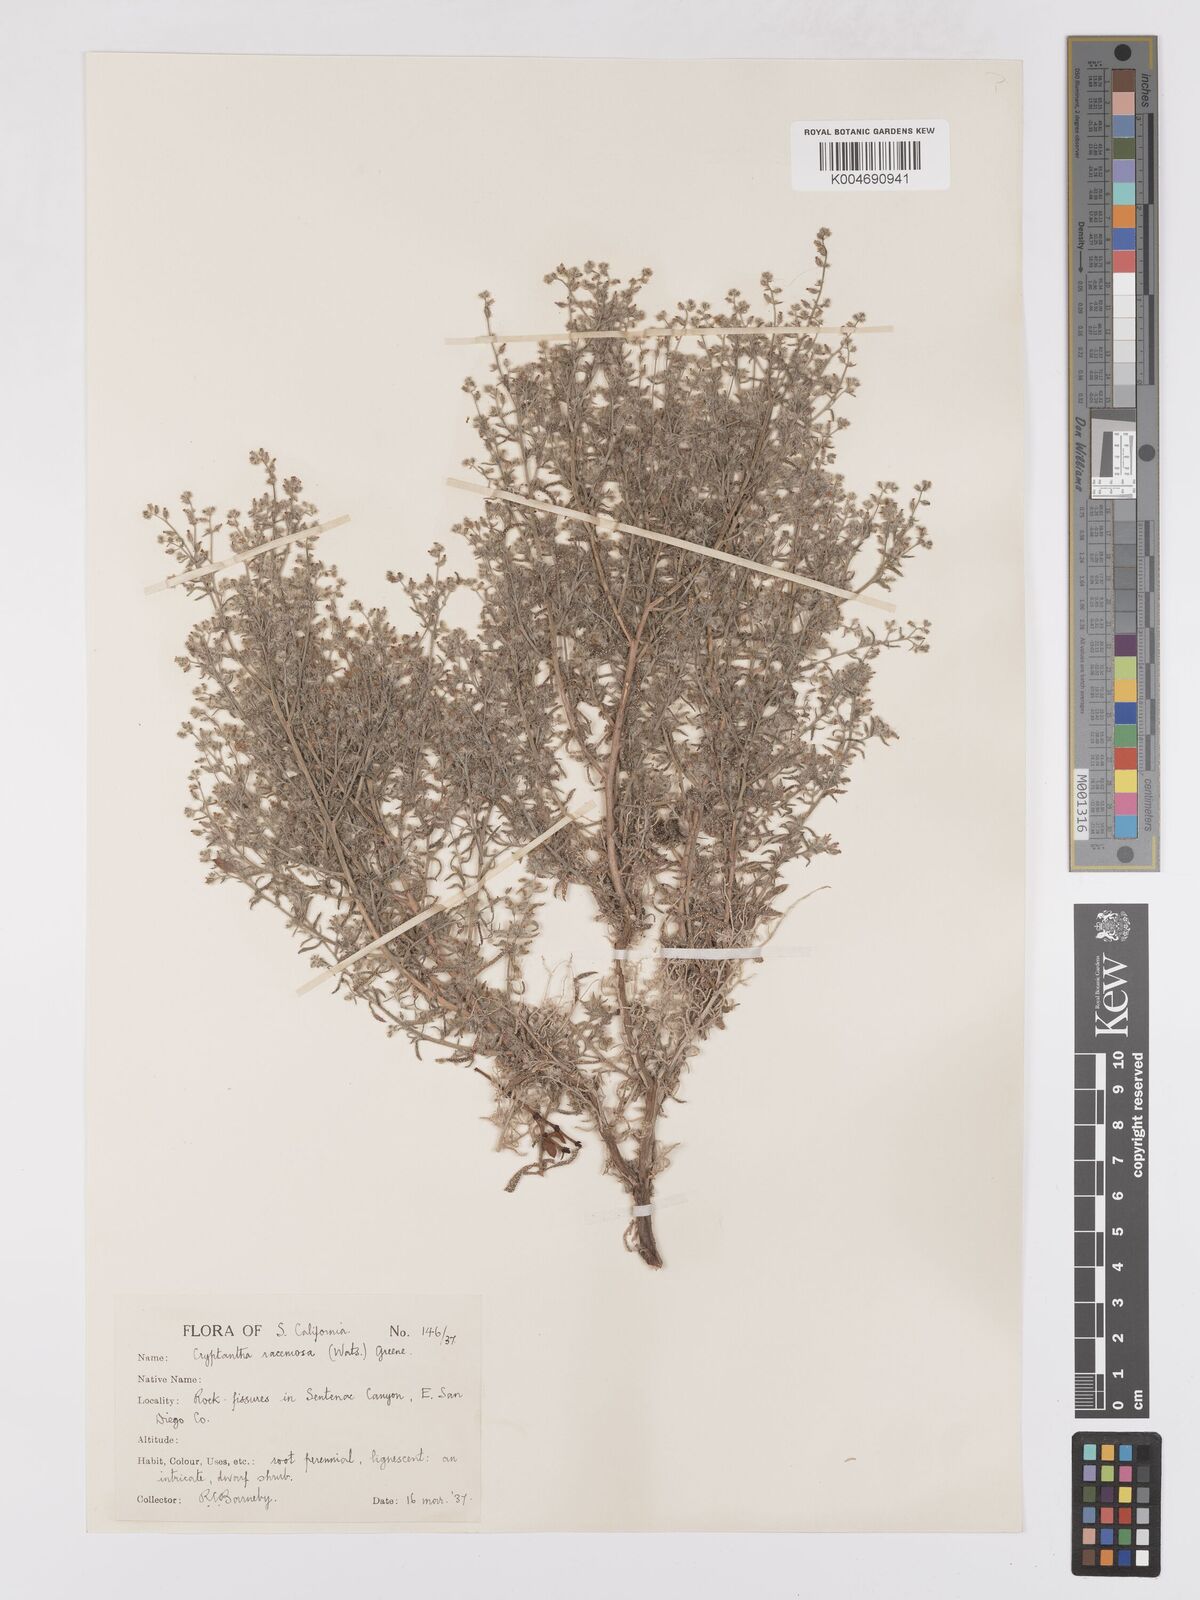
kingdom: Plantae
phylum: Tracheophyta
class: Magnoliopsida
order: Boraginales
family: Boraginaceae
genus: Johnstonella
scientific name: Johnstonella racemosa
